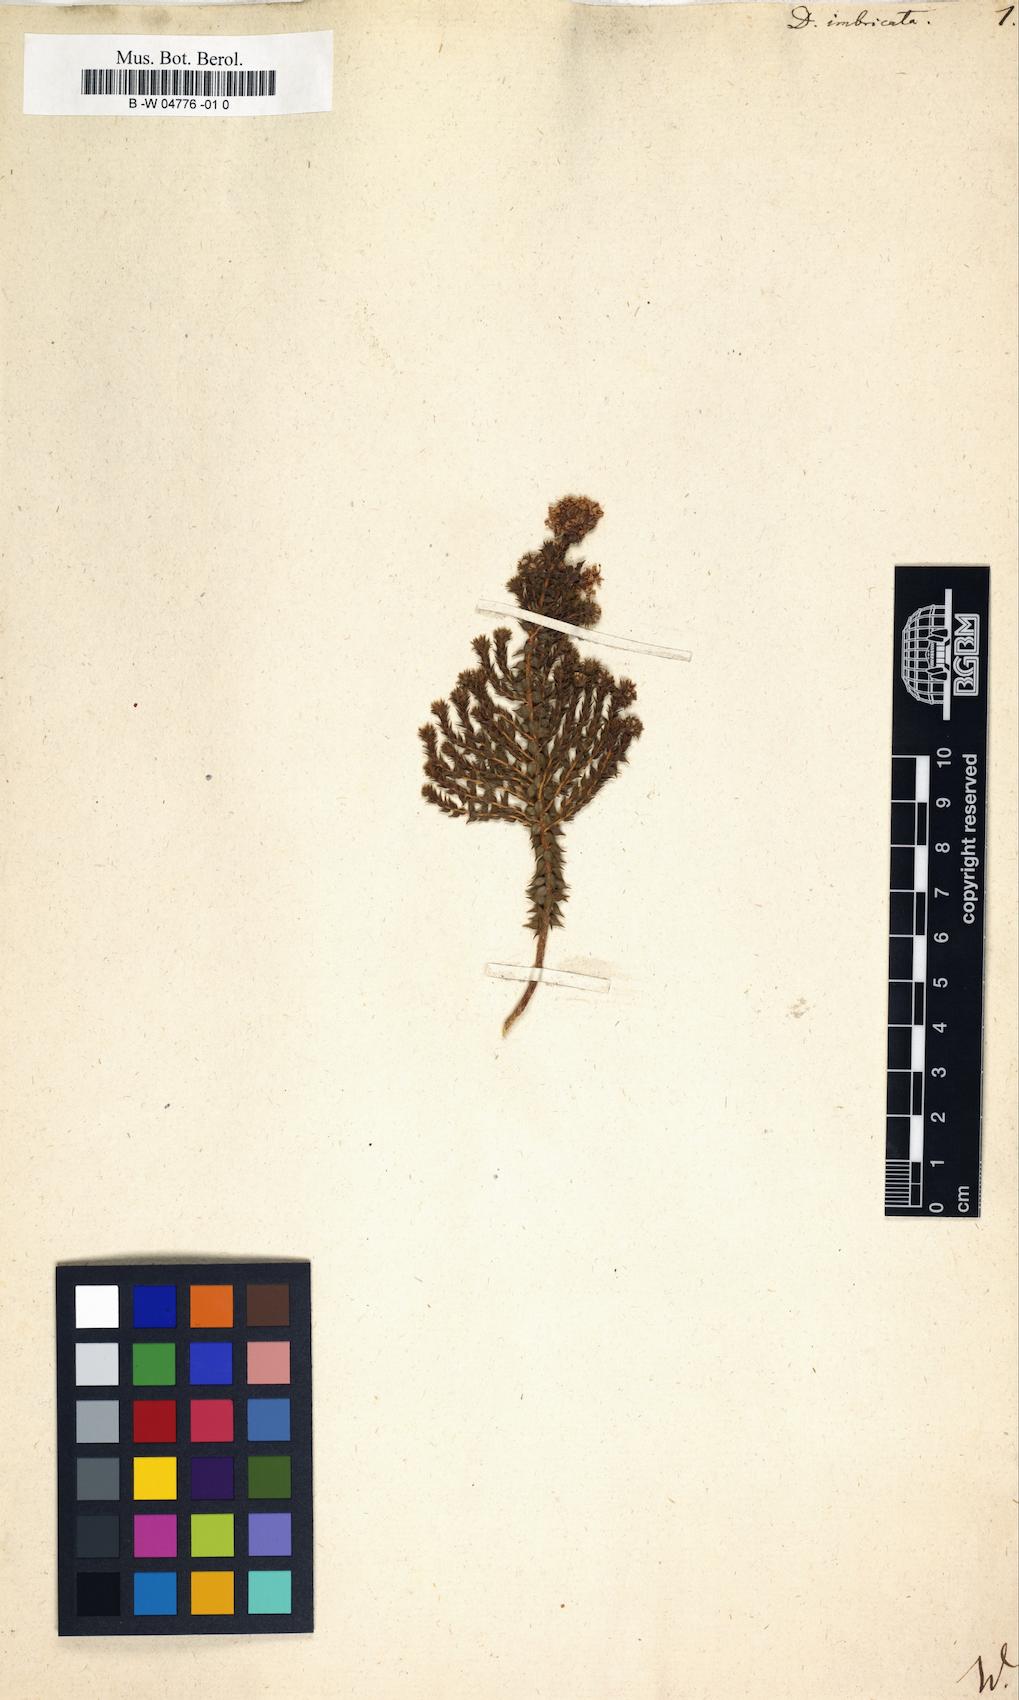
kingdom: Plantae
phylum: Tracheophyta
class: Magnoliopsida
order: Sapindales
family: Rutaceae
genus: Agathosma
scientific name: Agathosma imbricata
